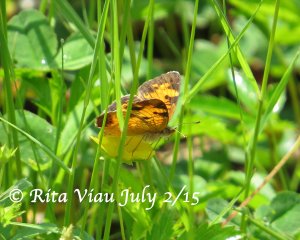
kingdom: Animalia
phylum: Arthropoda
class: Insecta
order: Lepidoptera
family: Nymphalidae
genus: Phyciodes
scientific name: Phyciodes tharos
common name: Northern Crescent
